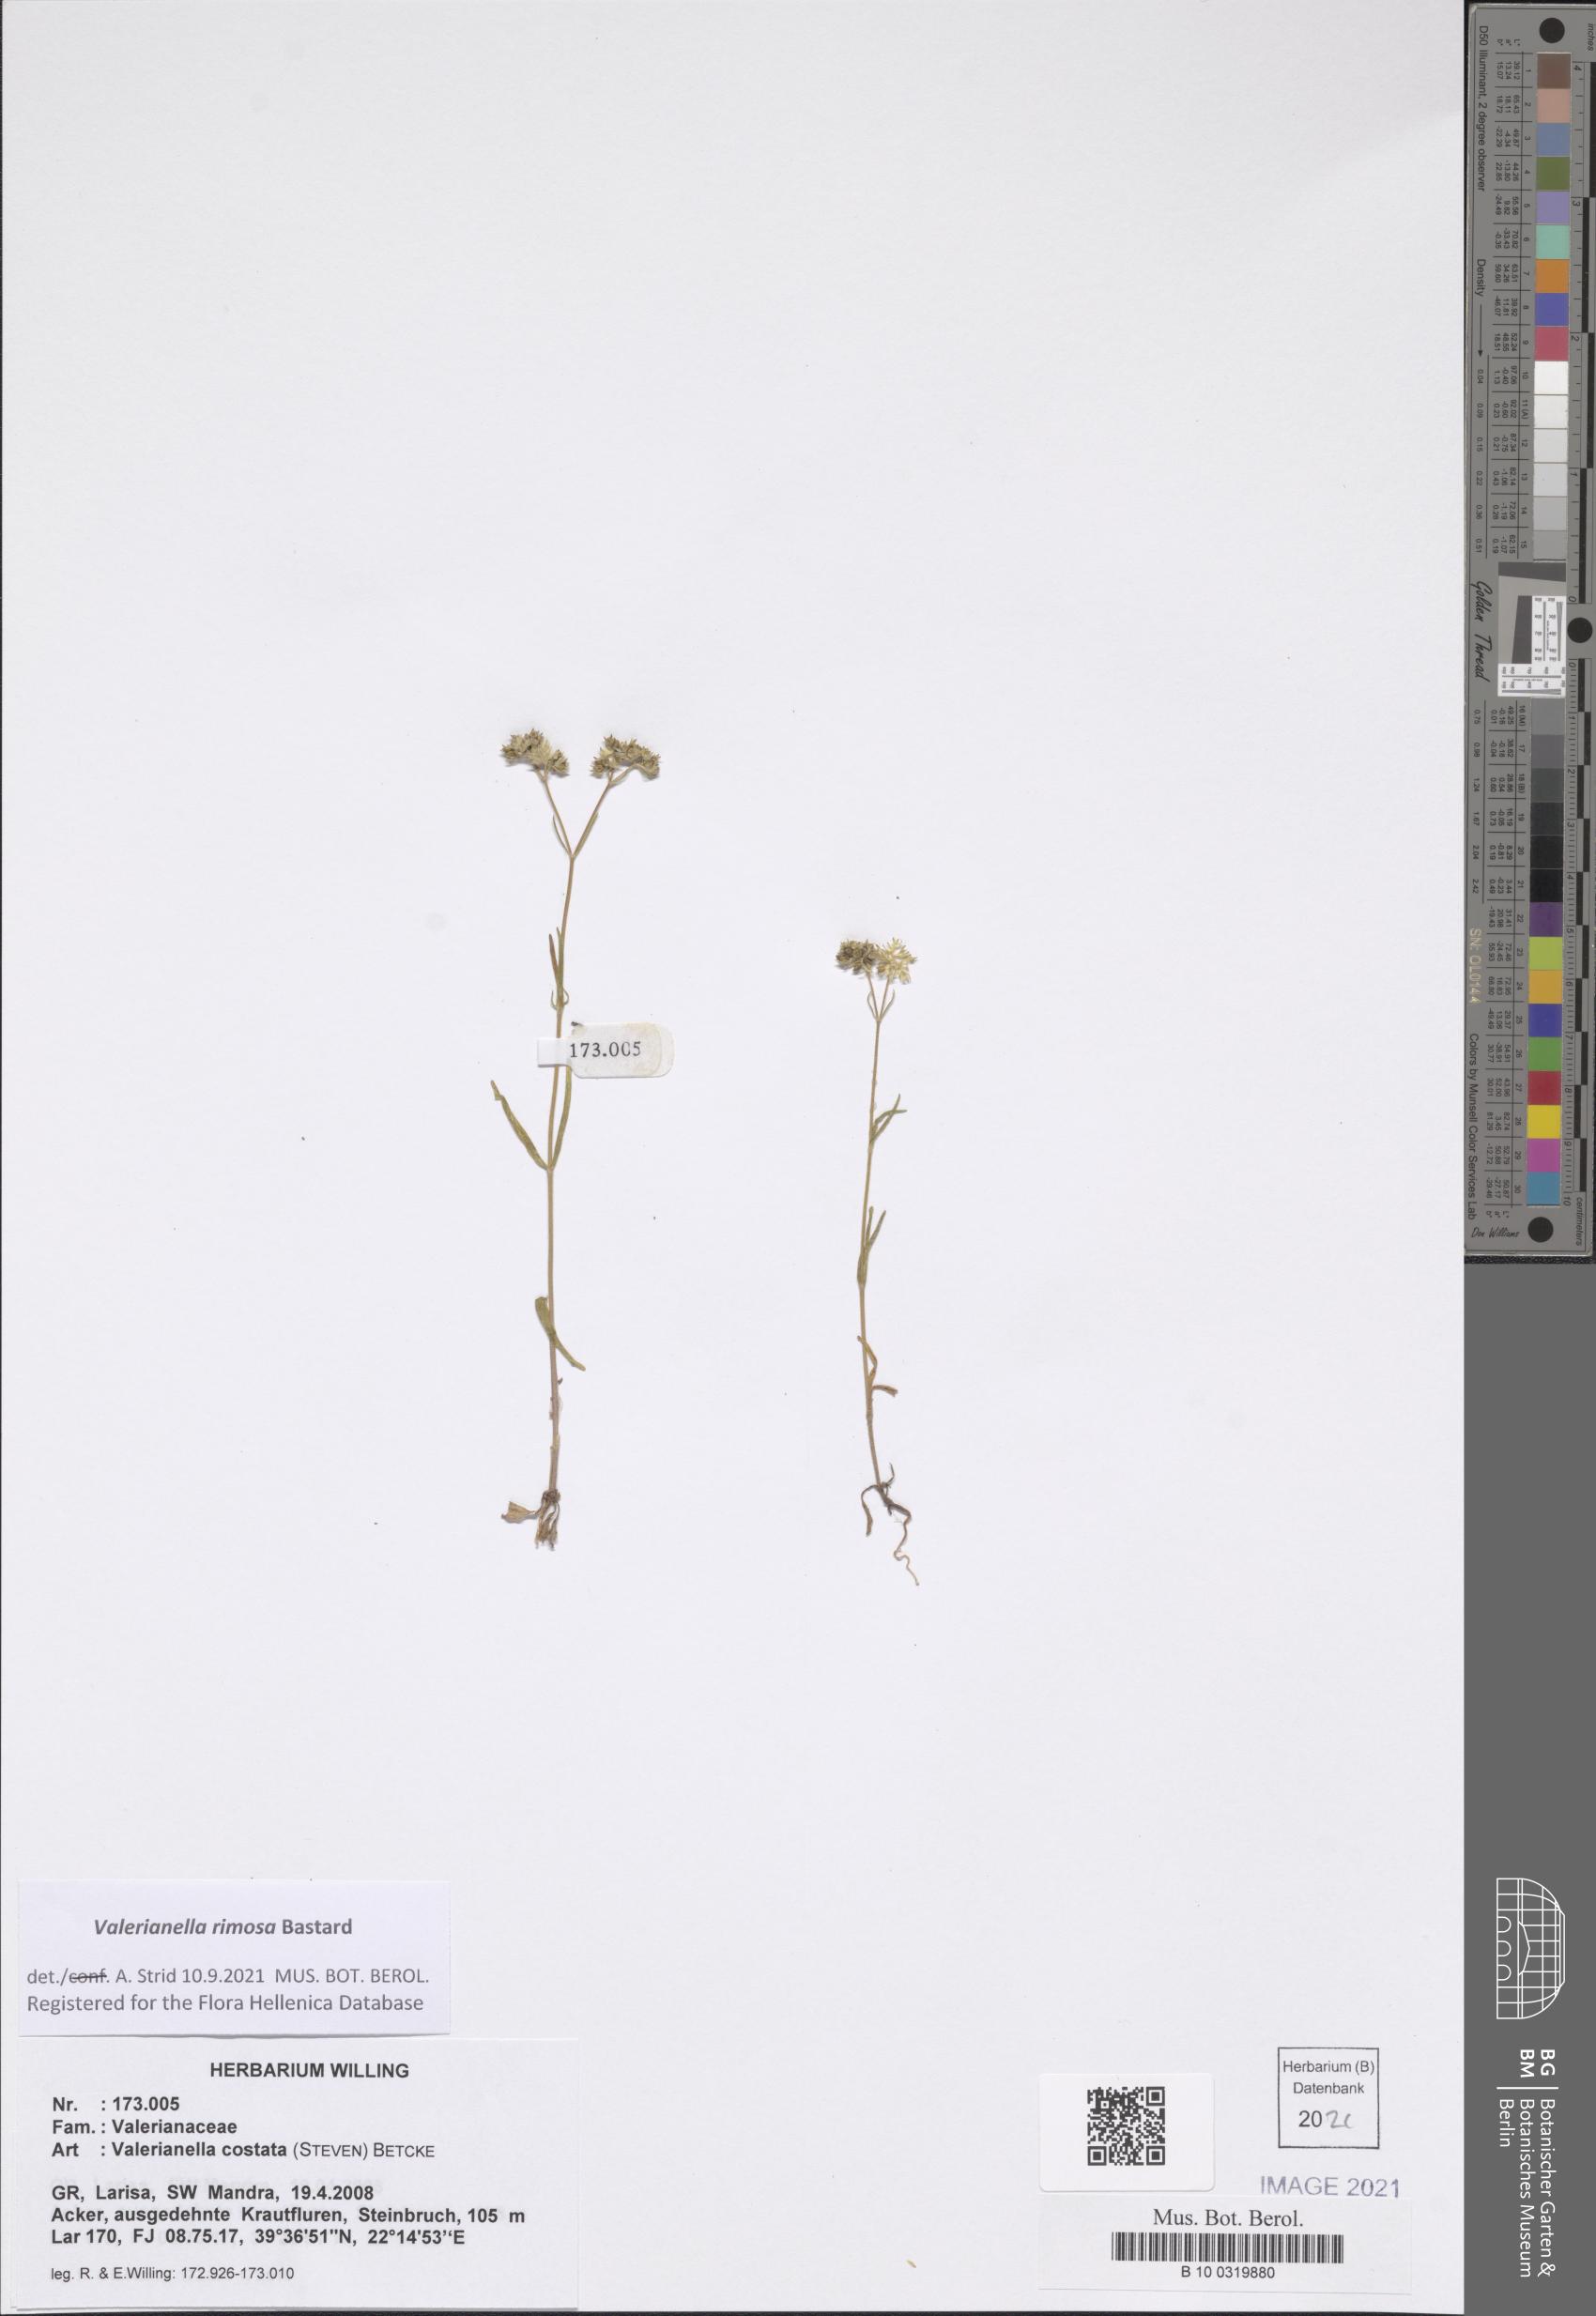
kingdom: Plantae
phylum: Tracheophyta
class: Magnoliopsida
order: Dipsacales
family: Caprifoliaceae
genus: Valerianella
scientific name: Valerianella rimosa
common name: Broad-fruited cornsalad
